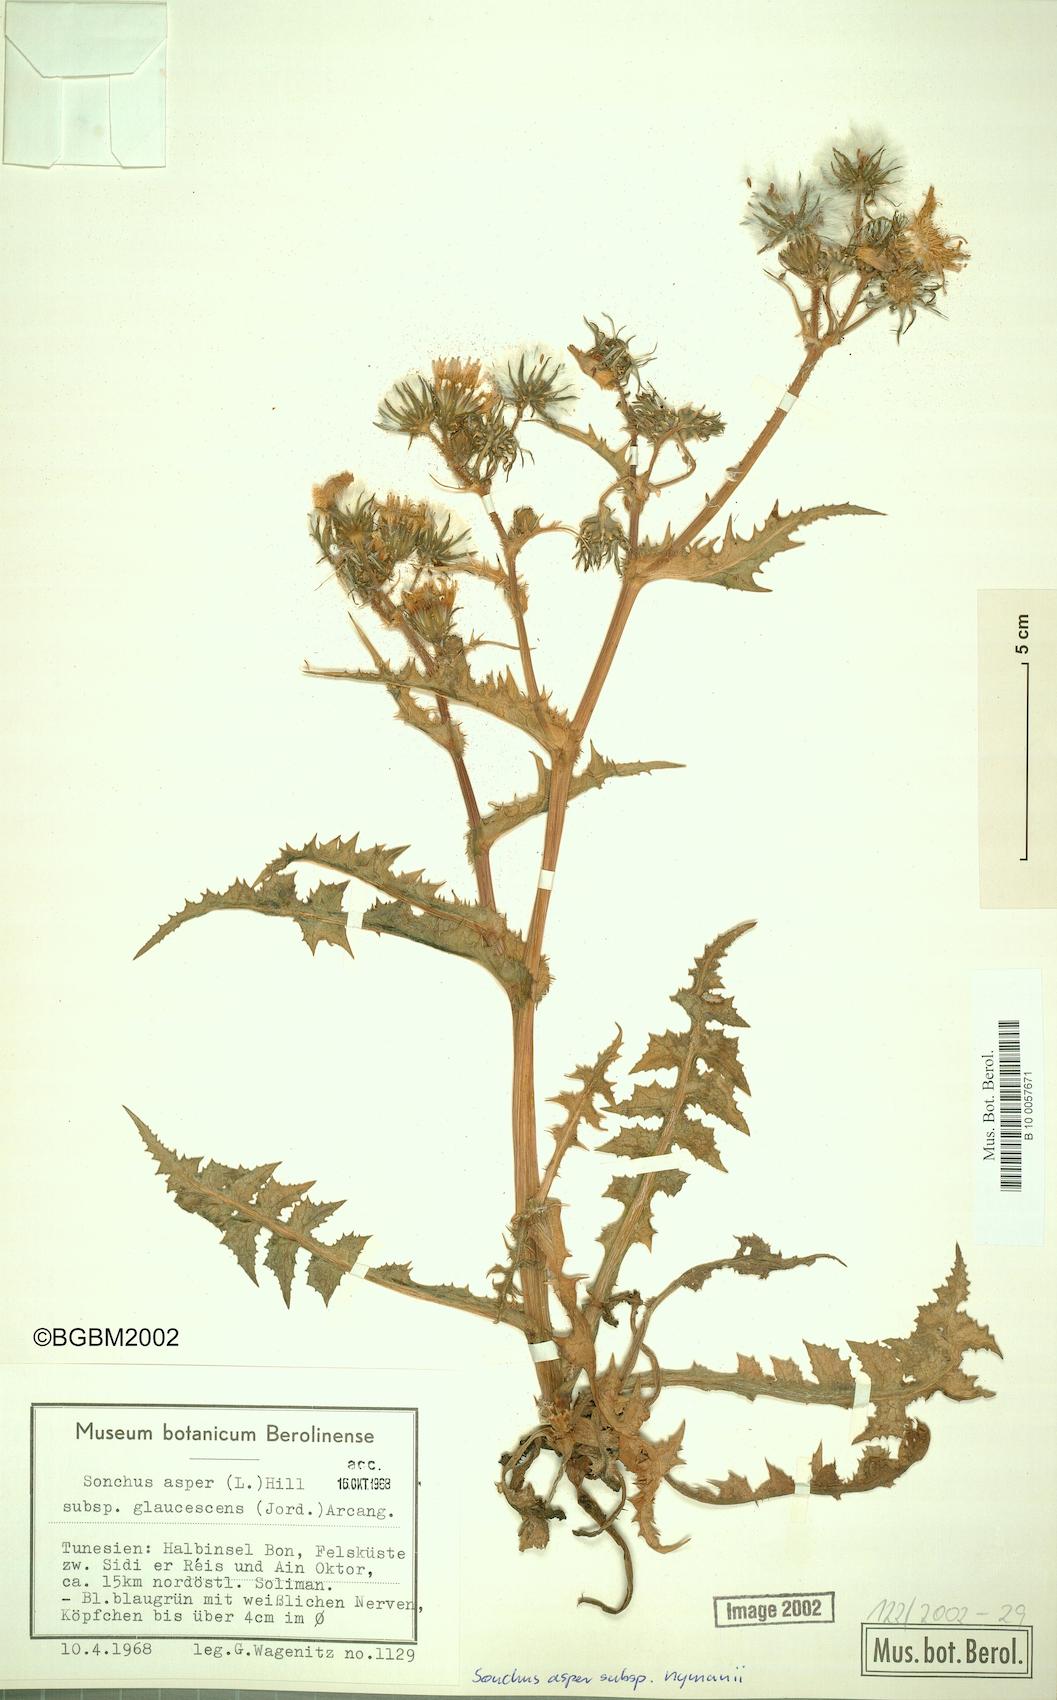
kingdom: Plantae
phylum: Tracheophyta
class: Magnoliopsida
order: Asterales
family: Asteraceae
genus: Sonchus
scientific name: Sonchus asper
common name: Prickly sow-thistle
